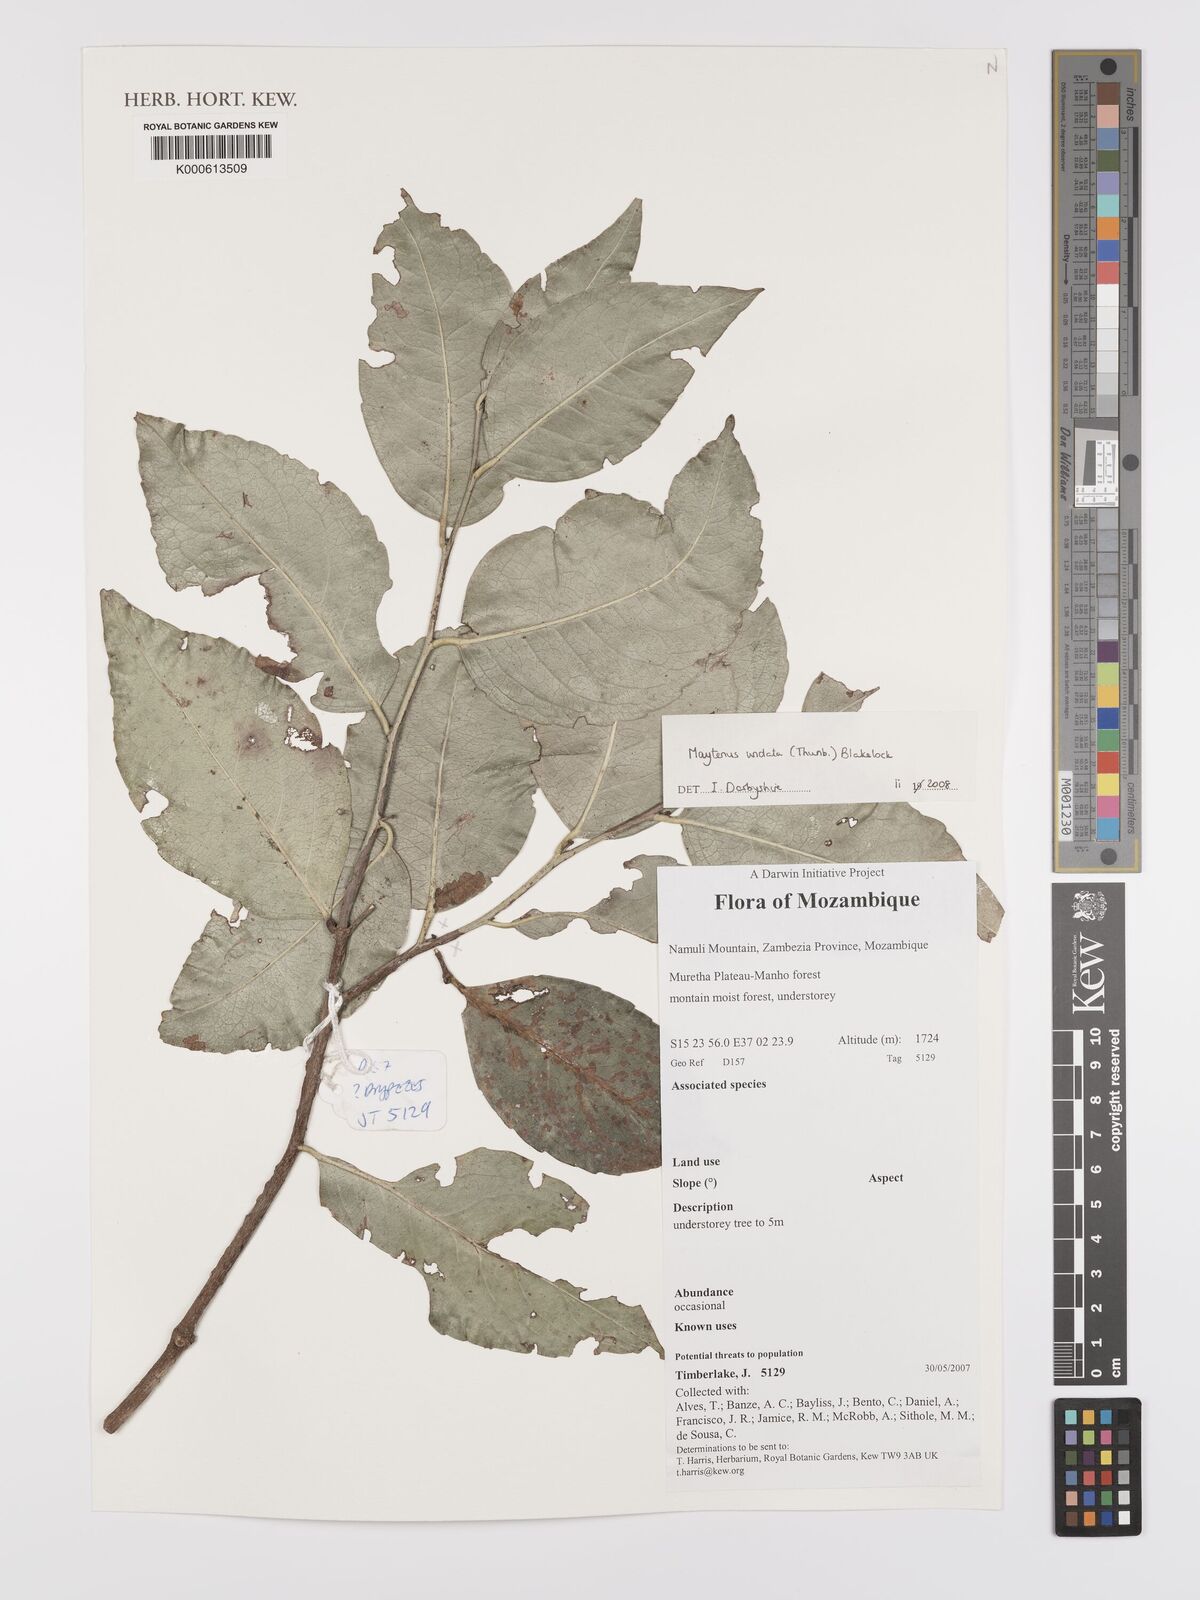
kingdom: Plantae
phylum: Tracheophyta
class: Magnoliopsida
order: Celastrales
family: Celastraceae
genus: Gymnosporia
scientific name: Gymnosporia undata
